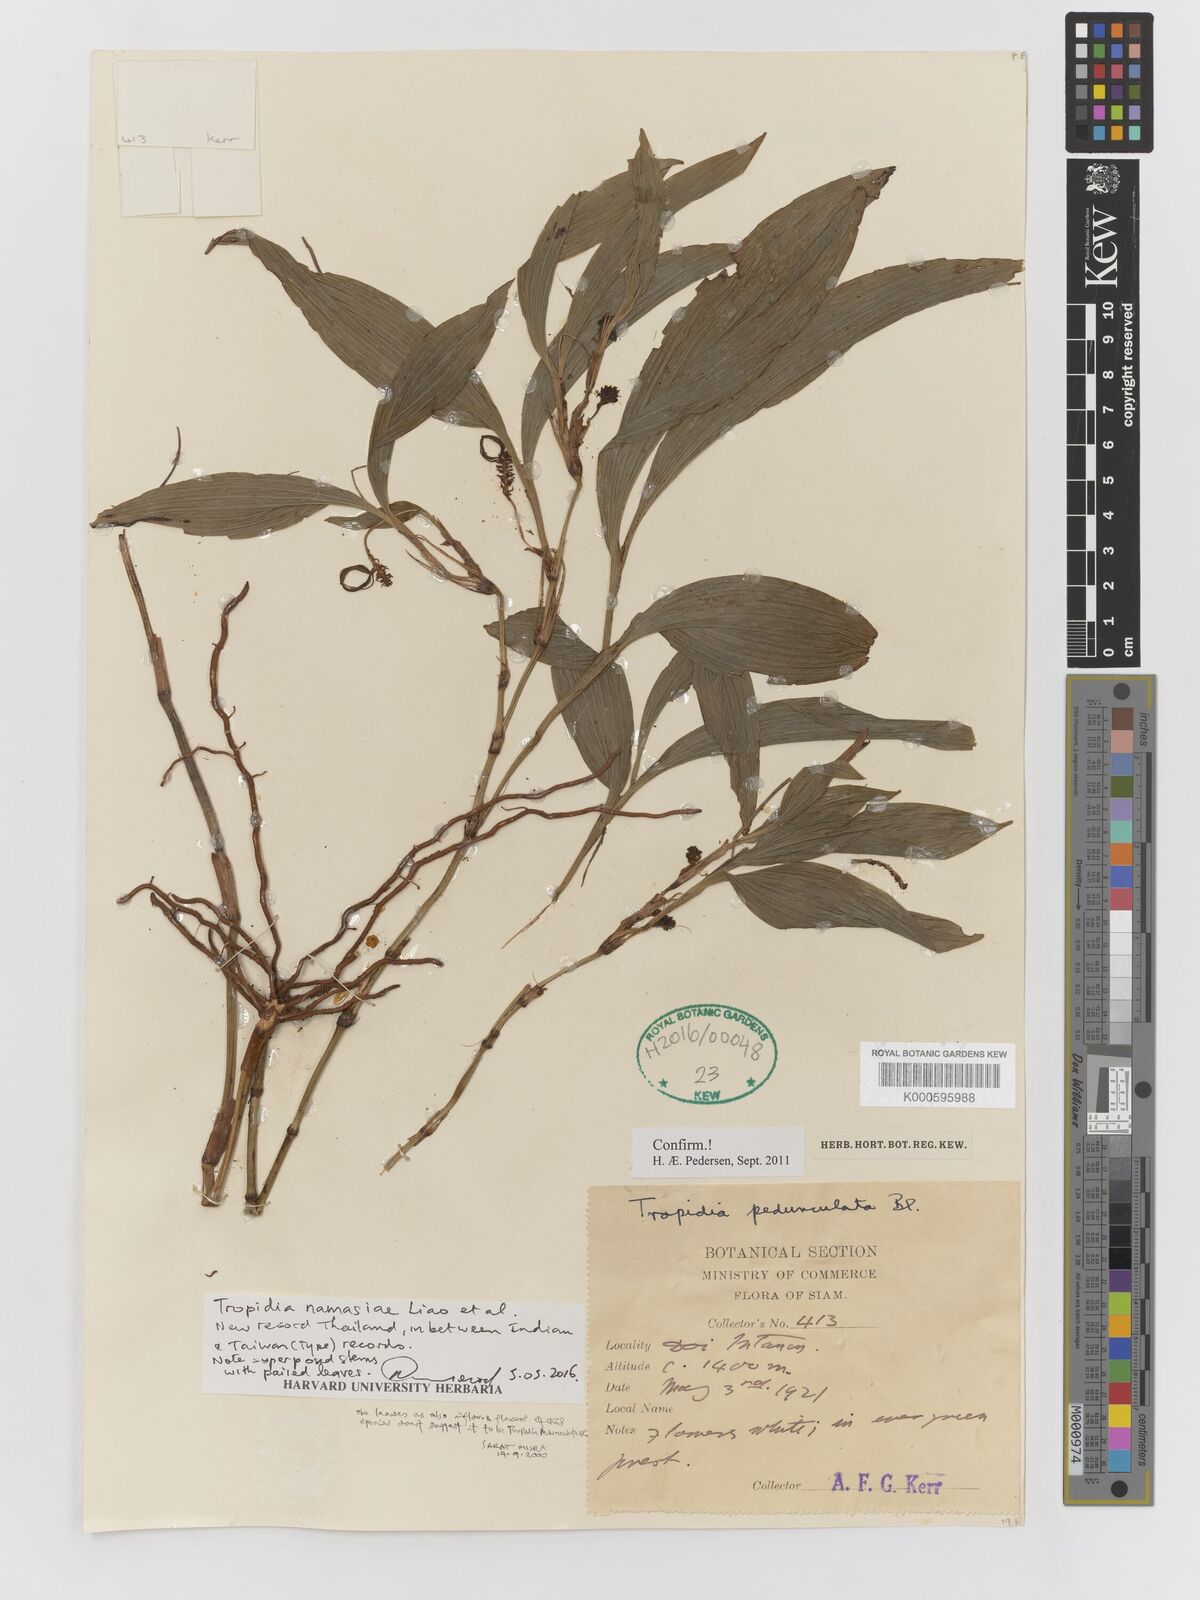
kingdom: Plantae
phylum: Tracheophyta
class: Liliopsida
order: Asparagales
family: Orchidaceae
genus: Tropidia
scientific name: Tropidia pedunculata
